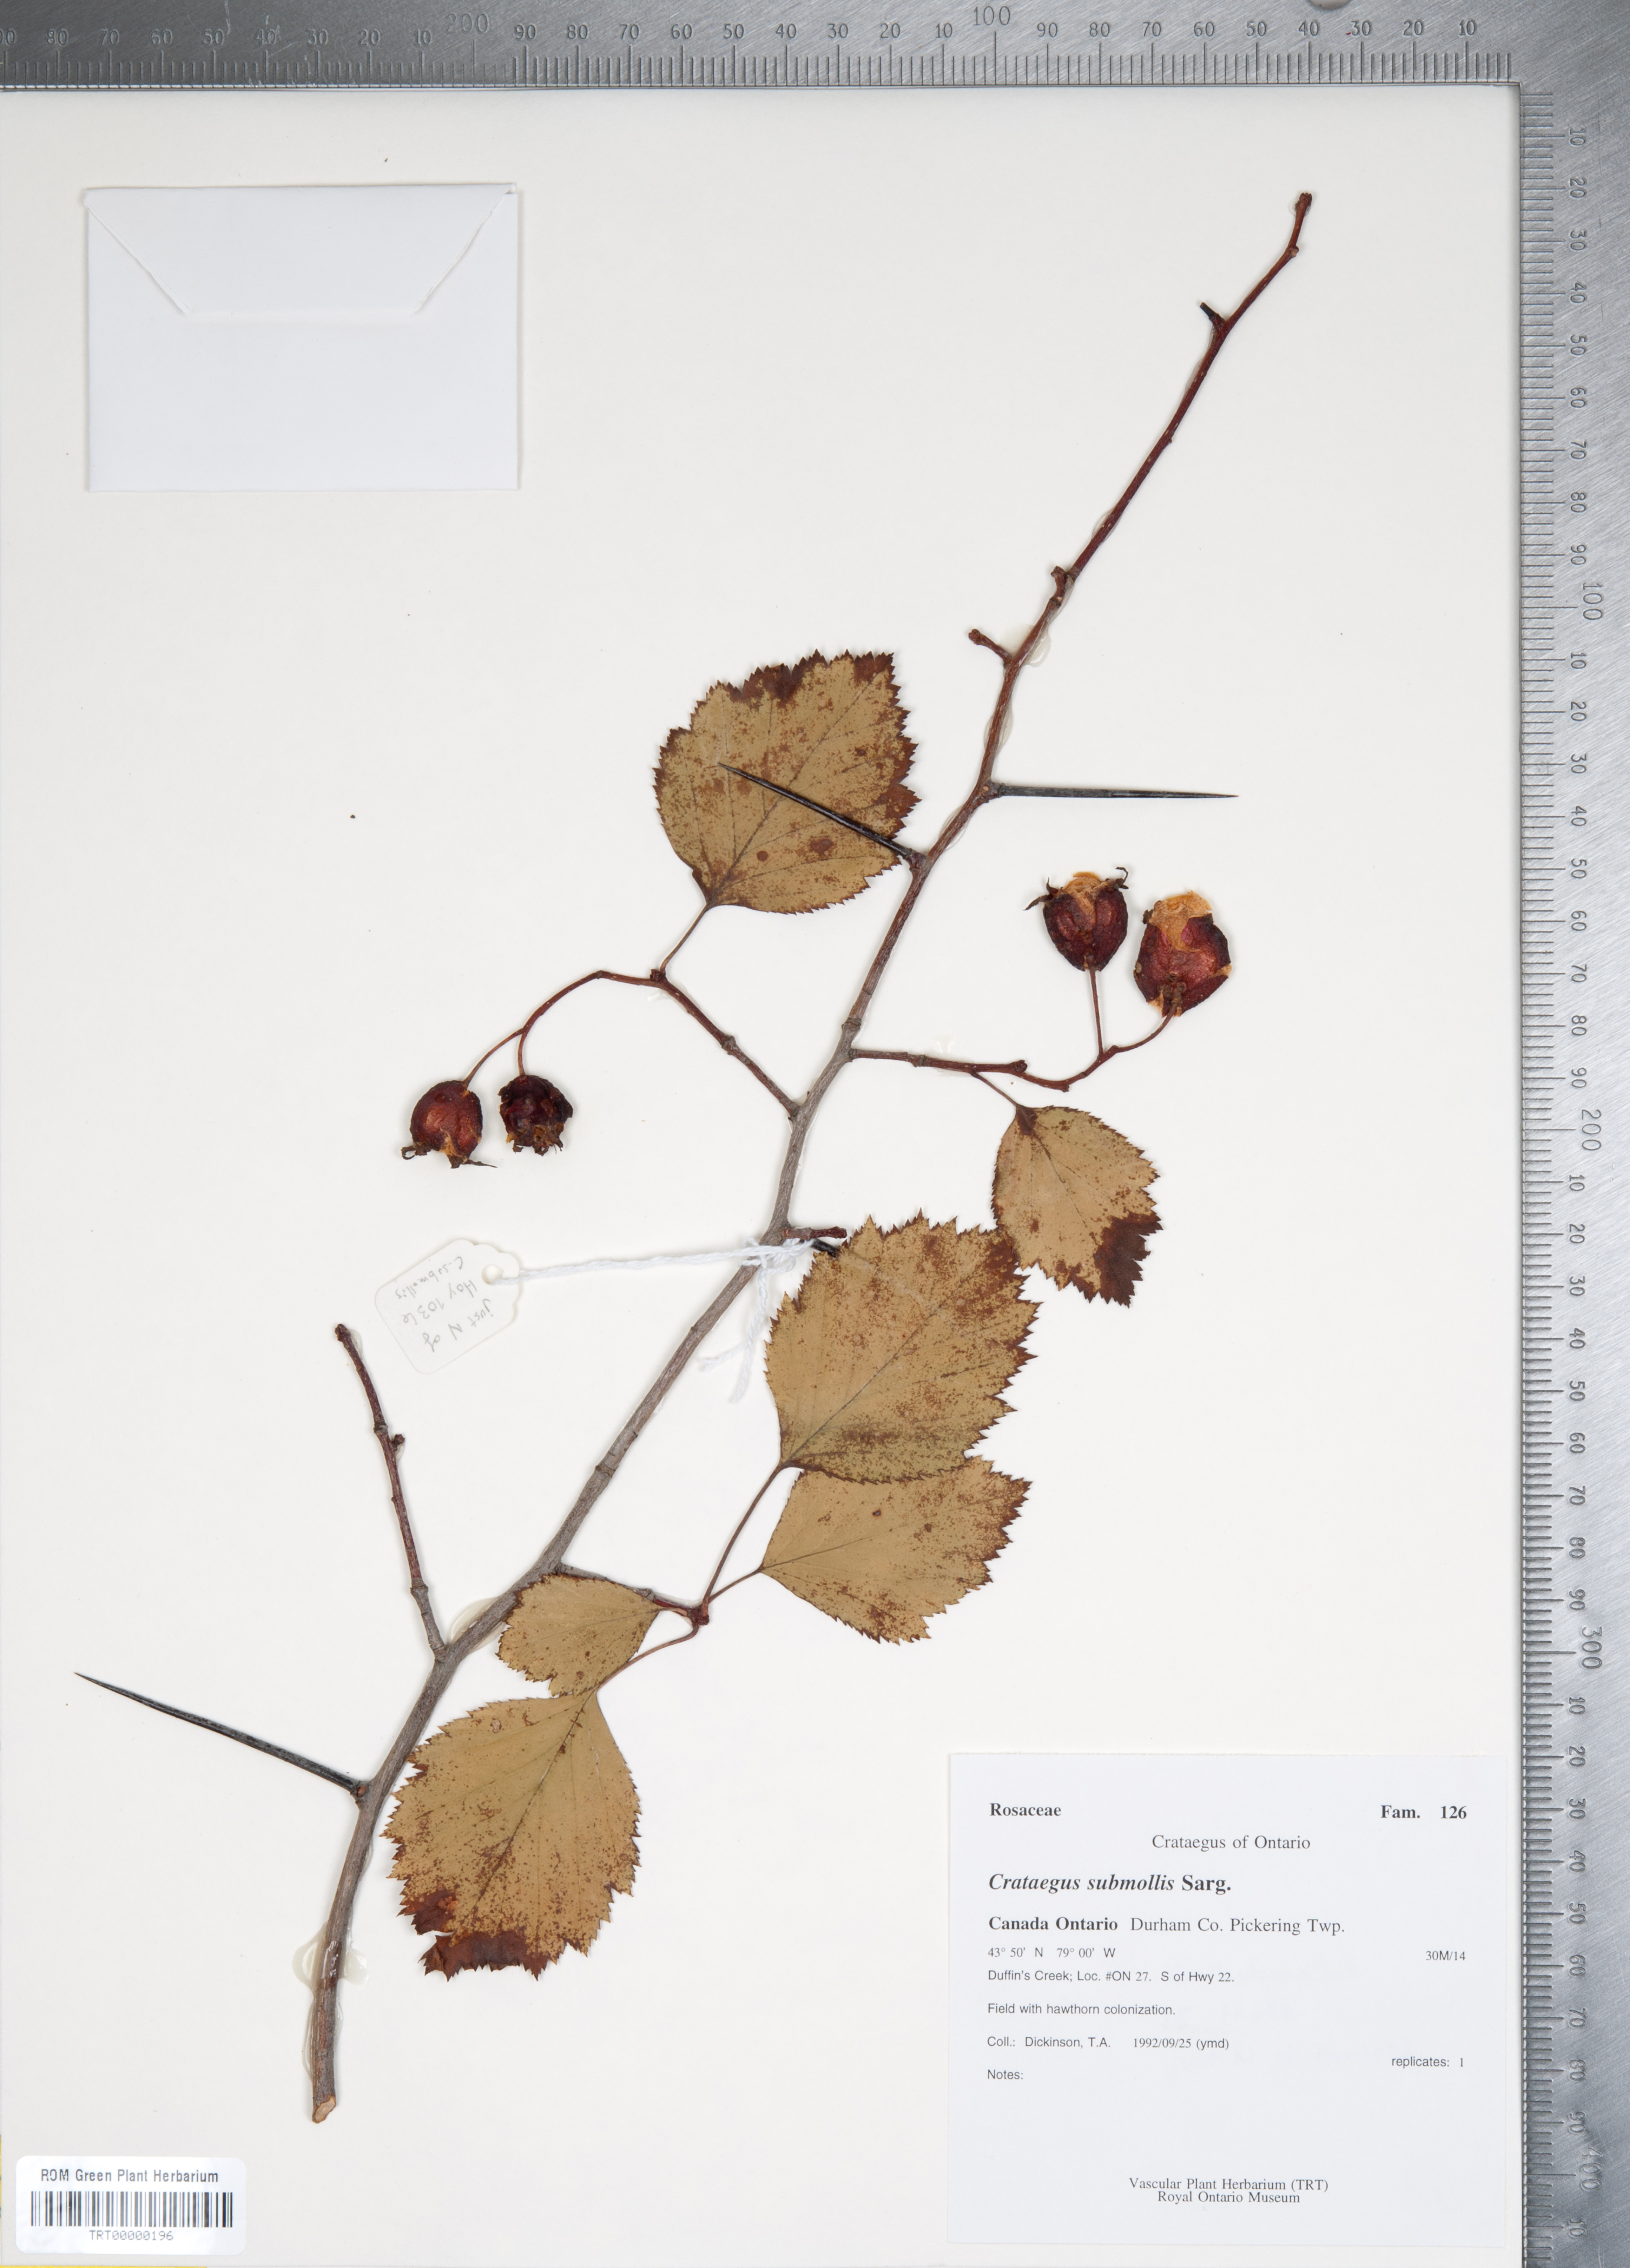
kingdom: Plantae
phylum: Tracheophyta
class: Magnoliopsida
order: Rosales
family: Rosaceae
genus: Crataegus
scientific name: Crataegus submollis
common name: Hairy cockspurthorn
